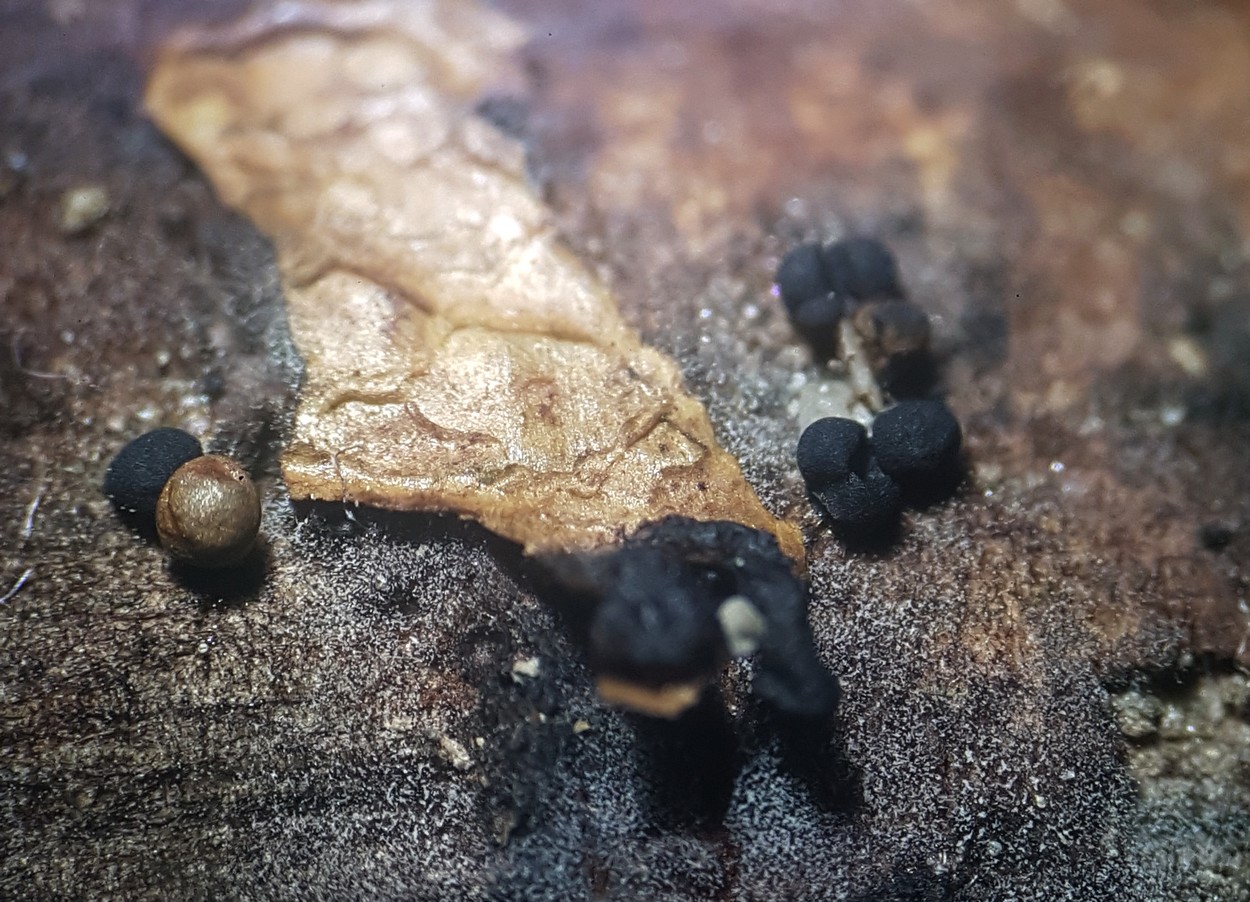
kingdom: Protozoa
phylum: Mycetozoa
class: Myxomycetes
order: Trichiales
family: Trichiaceae
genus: Trichia
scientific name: Trichia crateriformis
